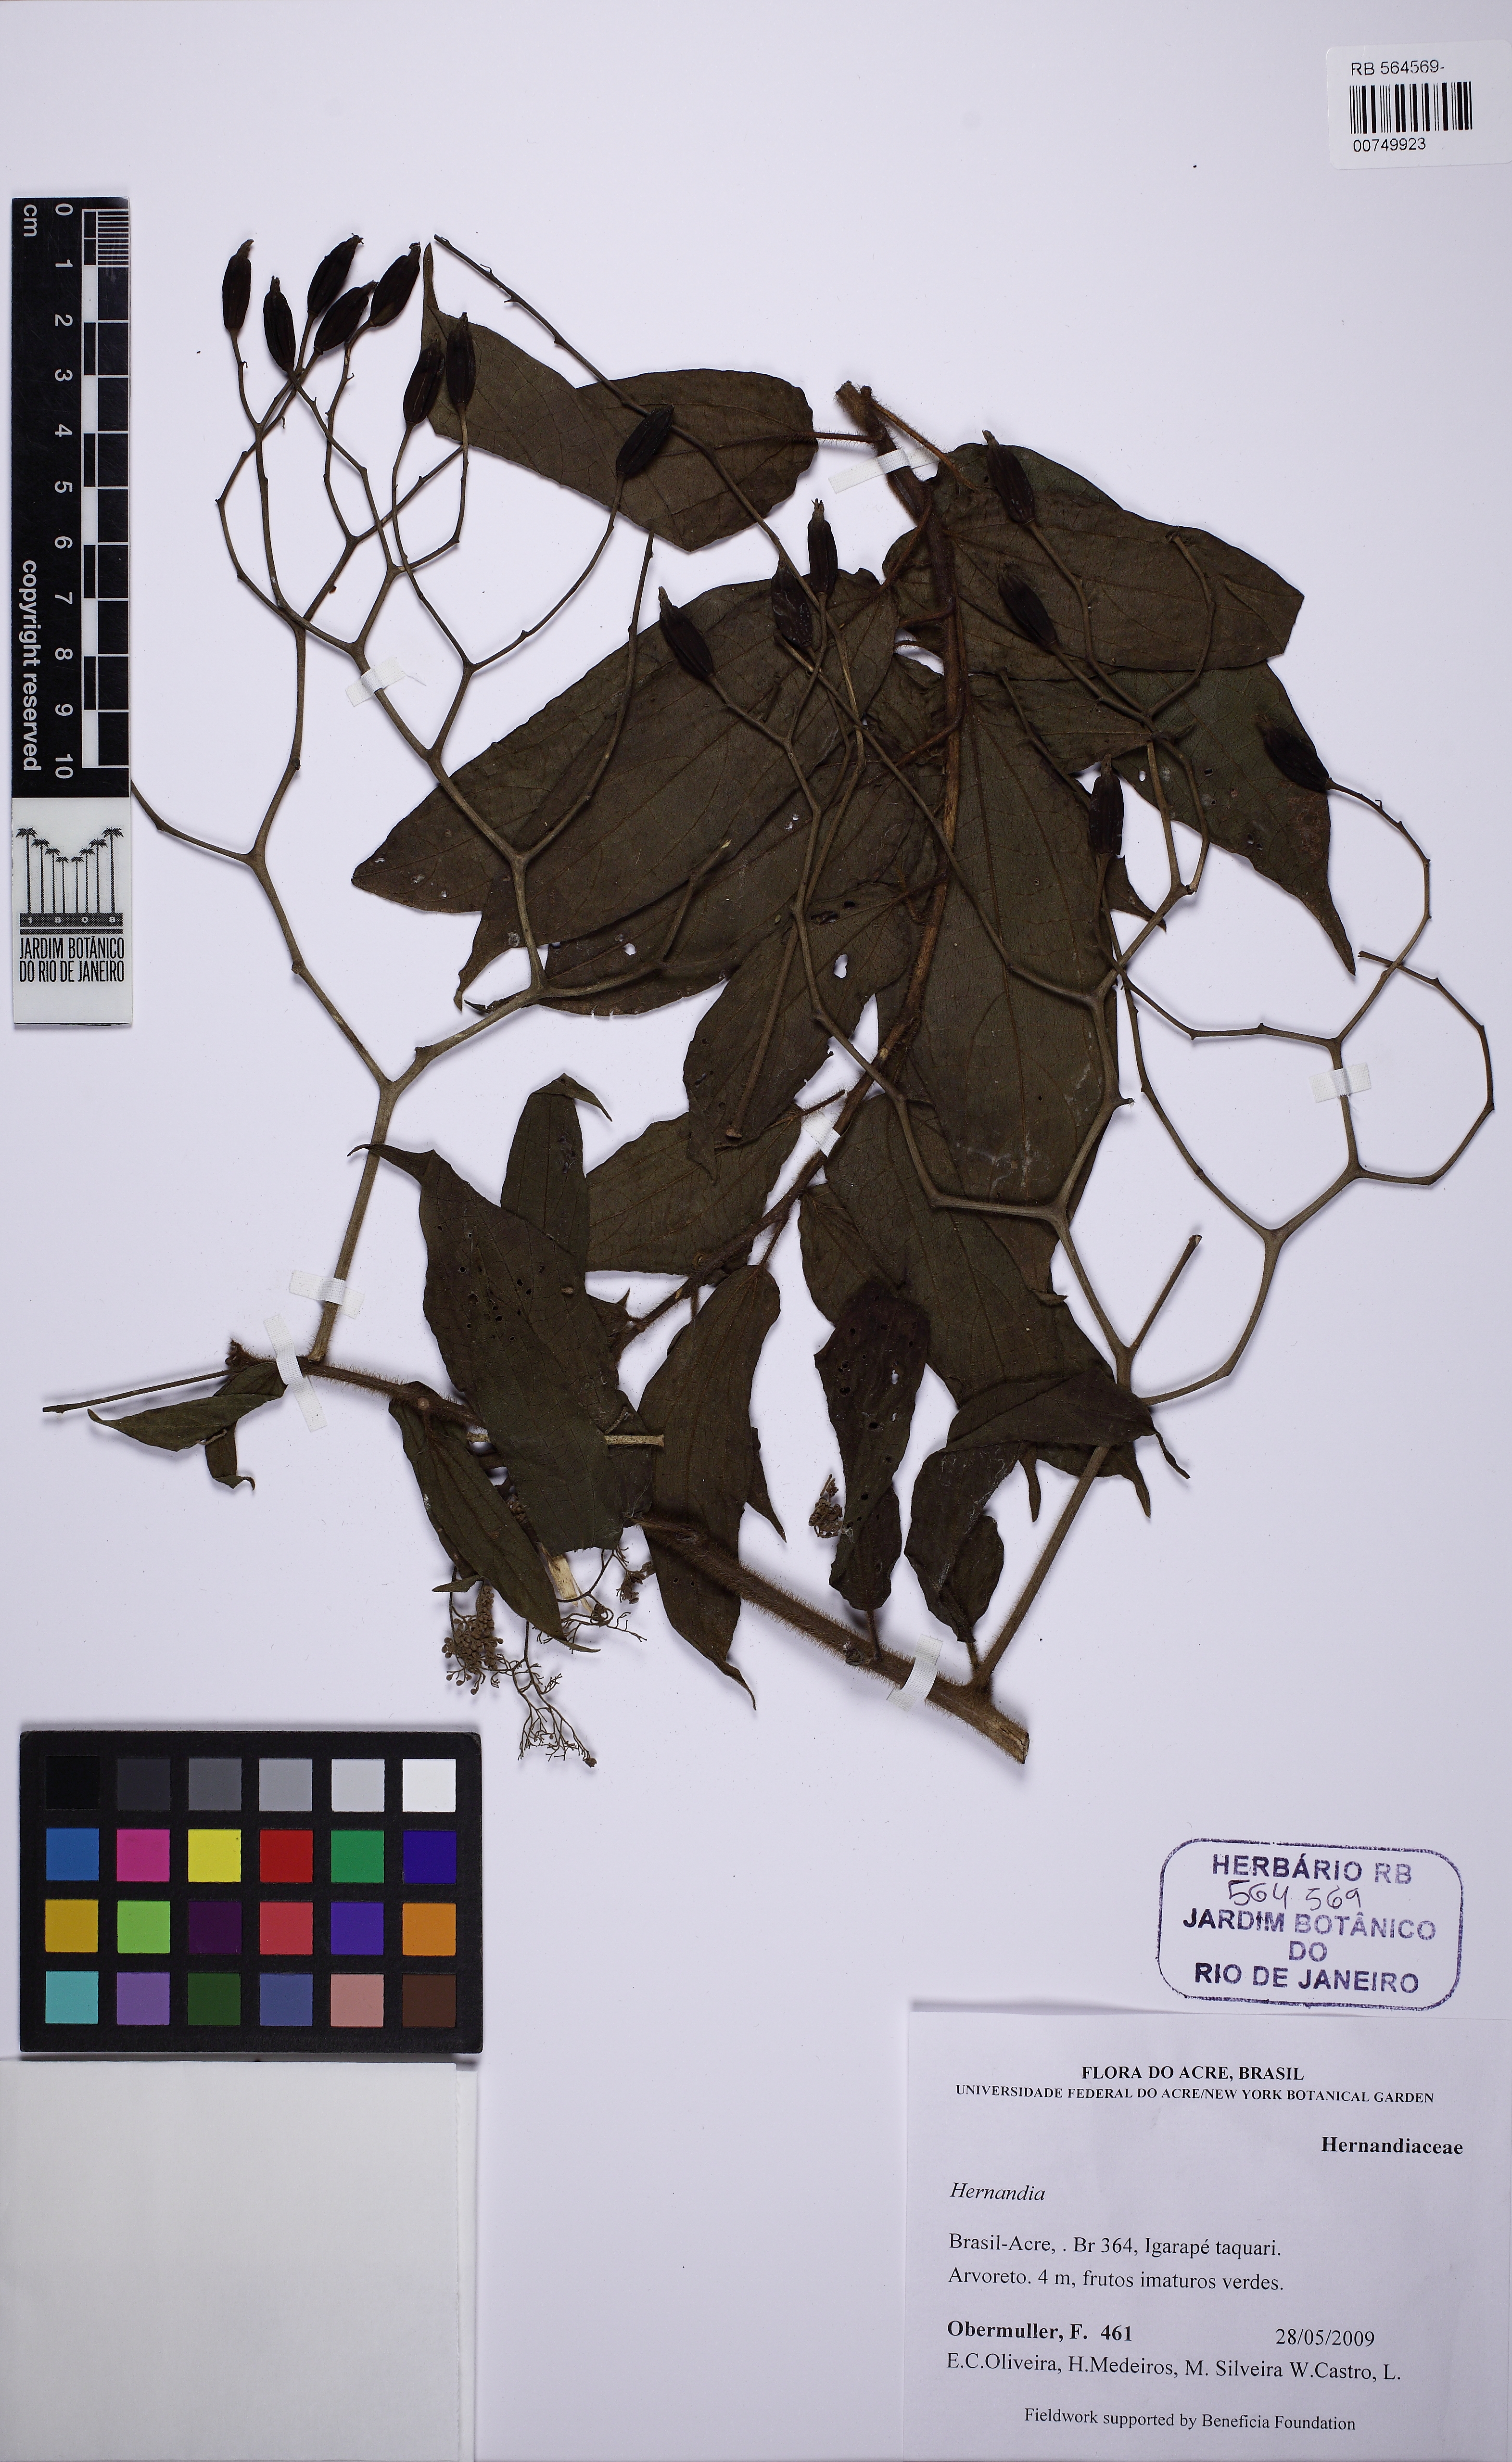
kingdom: Plantae
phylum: Tracheophyta
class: Magnoliopsida
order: Laurales
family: Hernandiaceae
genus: Hernandia
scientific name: Hernandia
